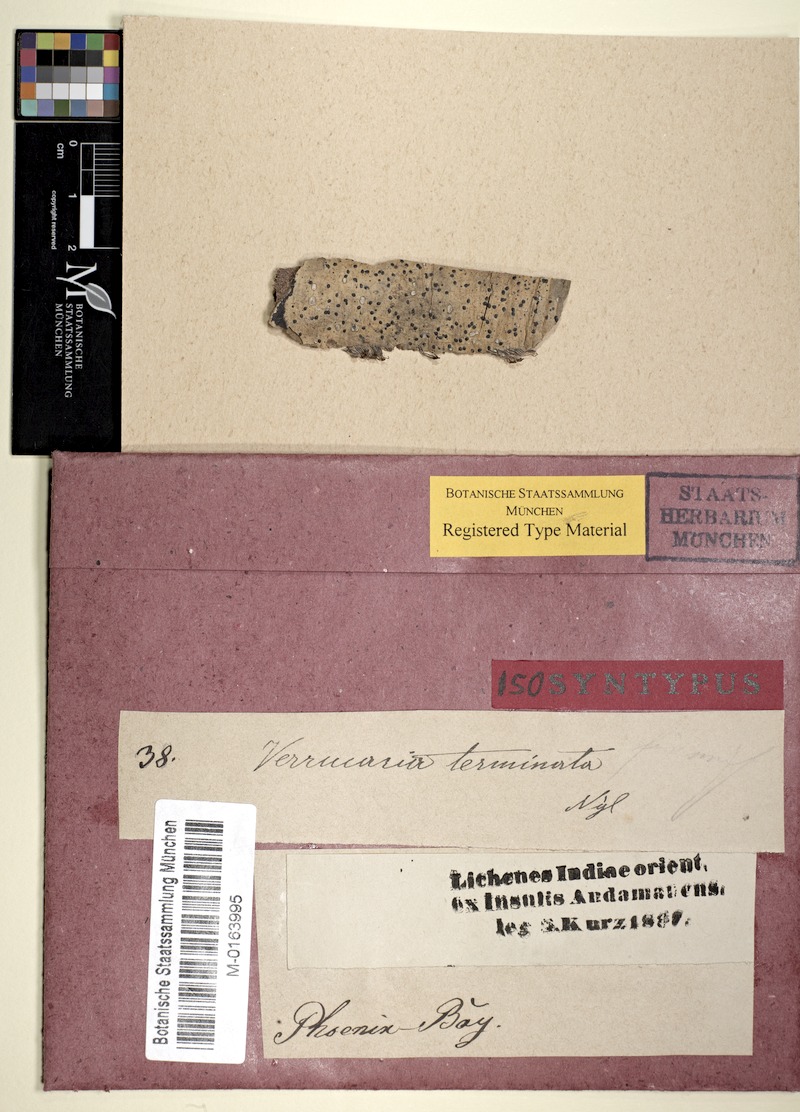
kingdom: Fungi
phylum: Ascomycota
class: Dothideomycetes
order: Monoblastiales
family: Monoblastiaceae
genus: Anisomeridium
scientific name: Anisomeridium terminatum
